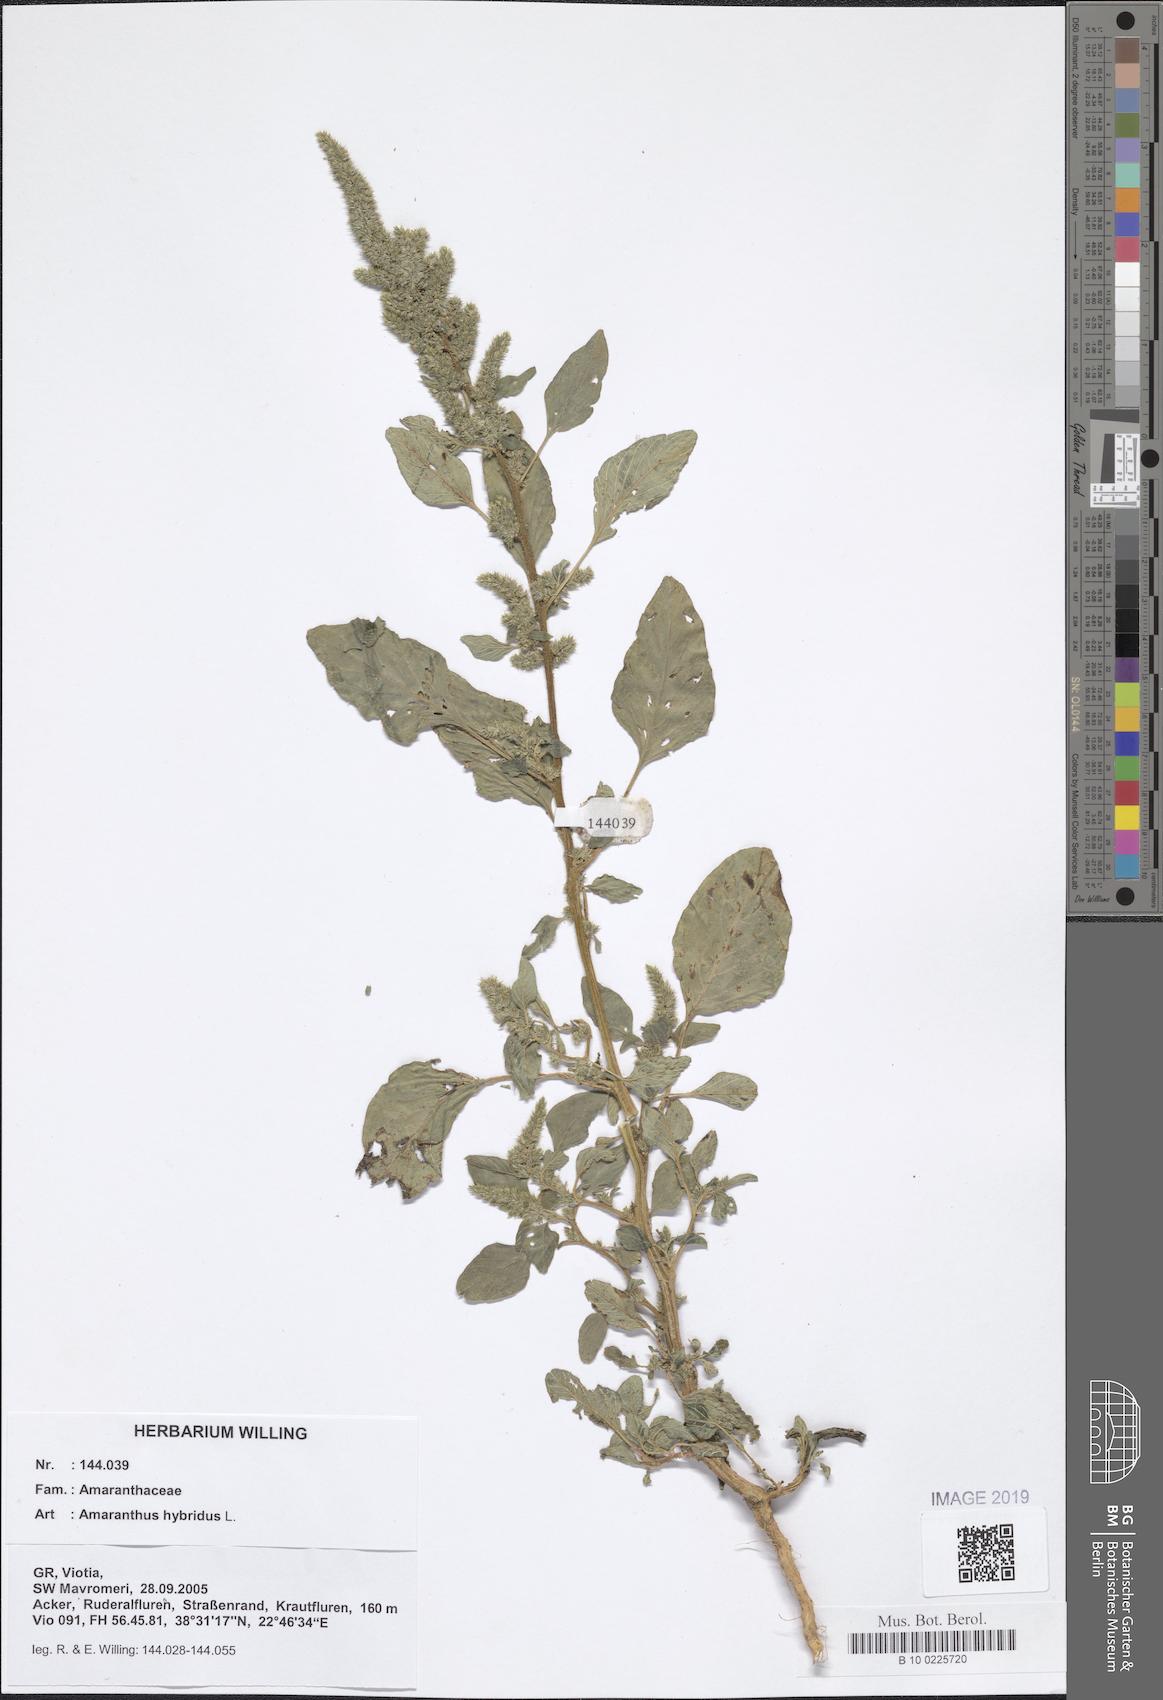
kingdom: Plantae
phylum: Tracheophyta
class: Magnoliopsida
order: Caryophyllales
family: Amaranthaceae
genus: Amaranthus
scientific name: Amaranthus hybridus
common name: Green amaranth
